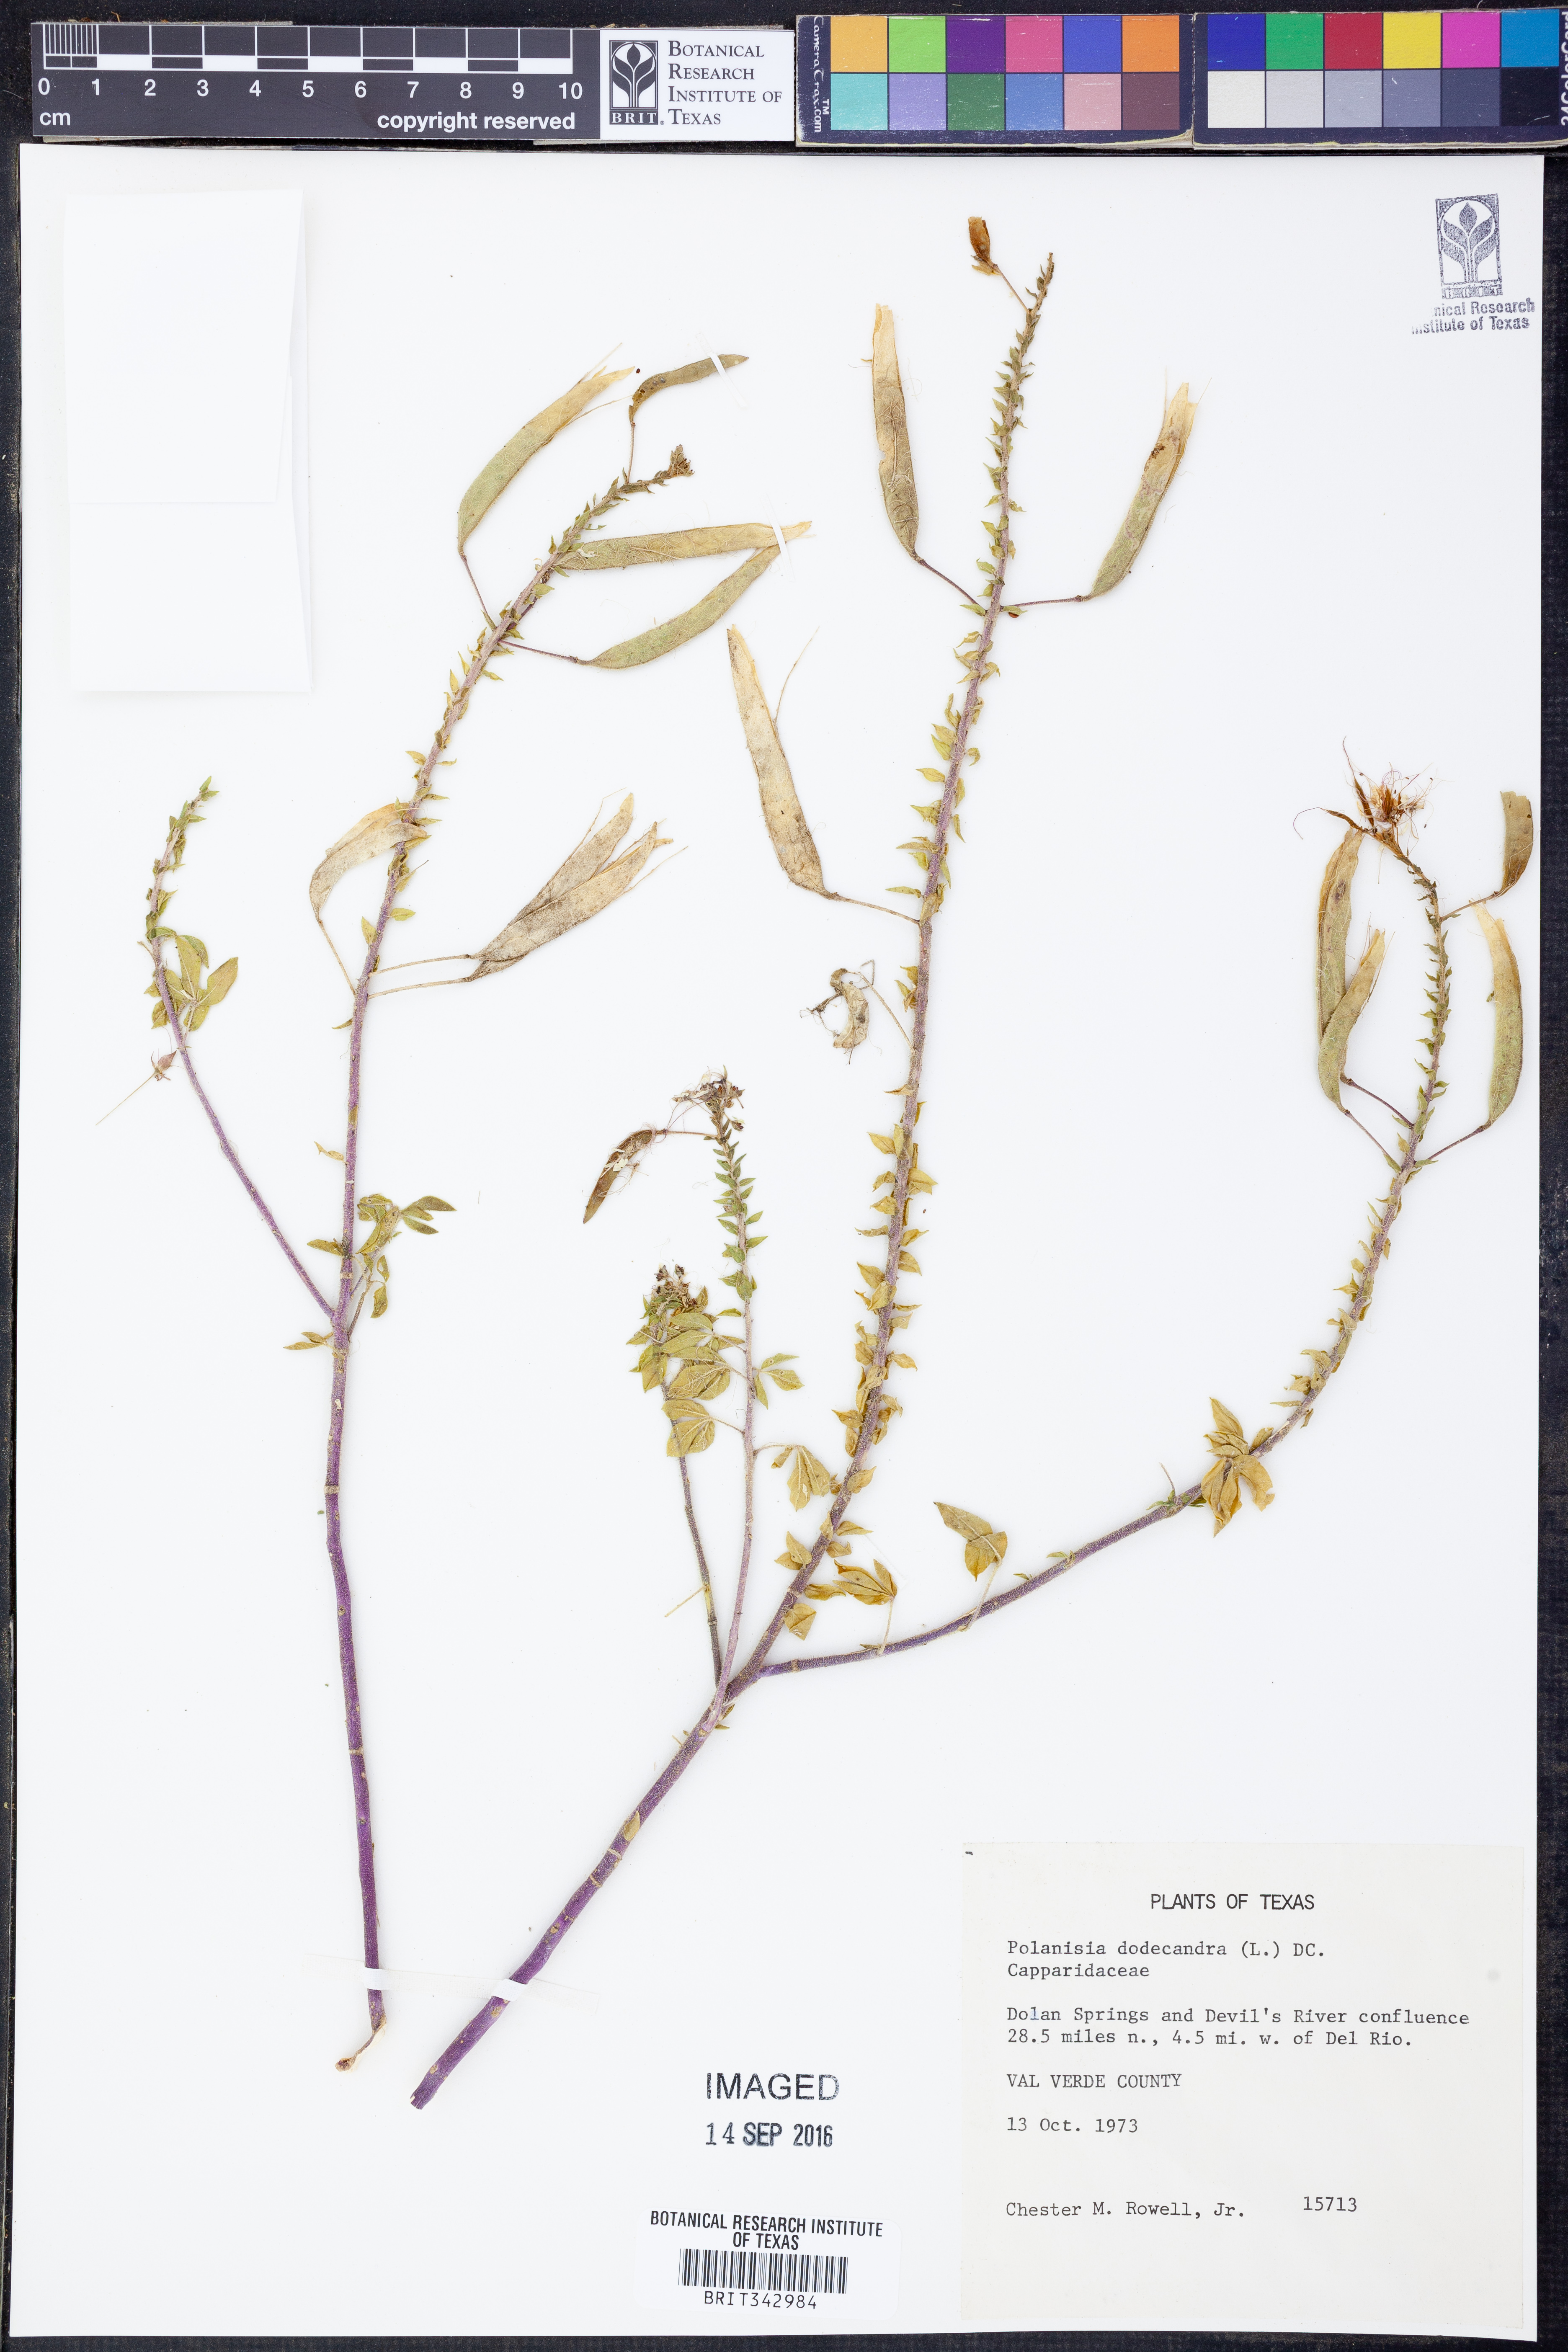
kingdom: Plantae
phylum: Tracheophyta
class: Magnoliopsida
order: Brassicales
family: Cleomaceae
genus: Polanisia
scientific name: Polanisia dodecandra
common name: Clammyweed
